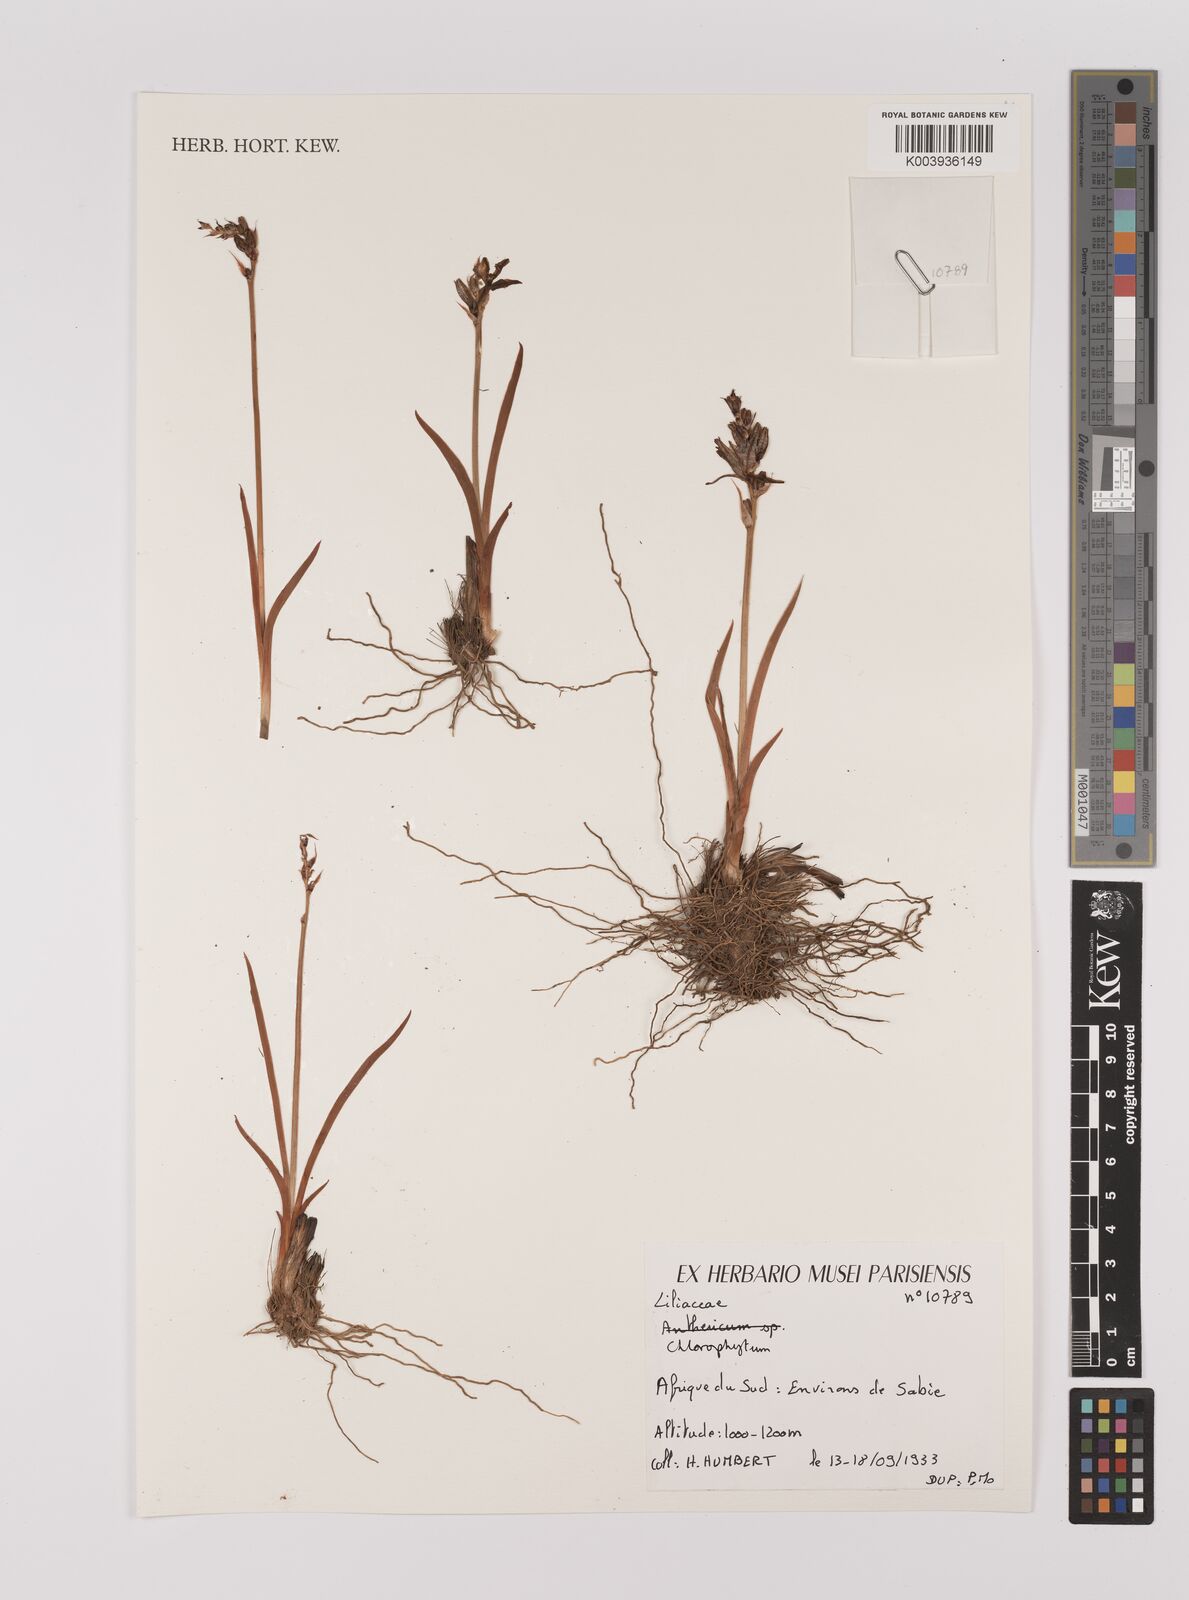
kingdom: Plantae
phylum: Tracheophyta
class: Liliopsida
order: Asparagales
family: Asparagaceae
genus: Chlorophytum
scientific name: Chlorophytum
